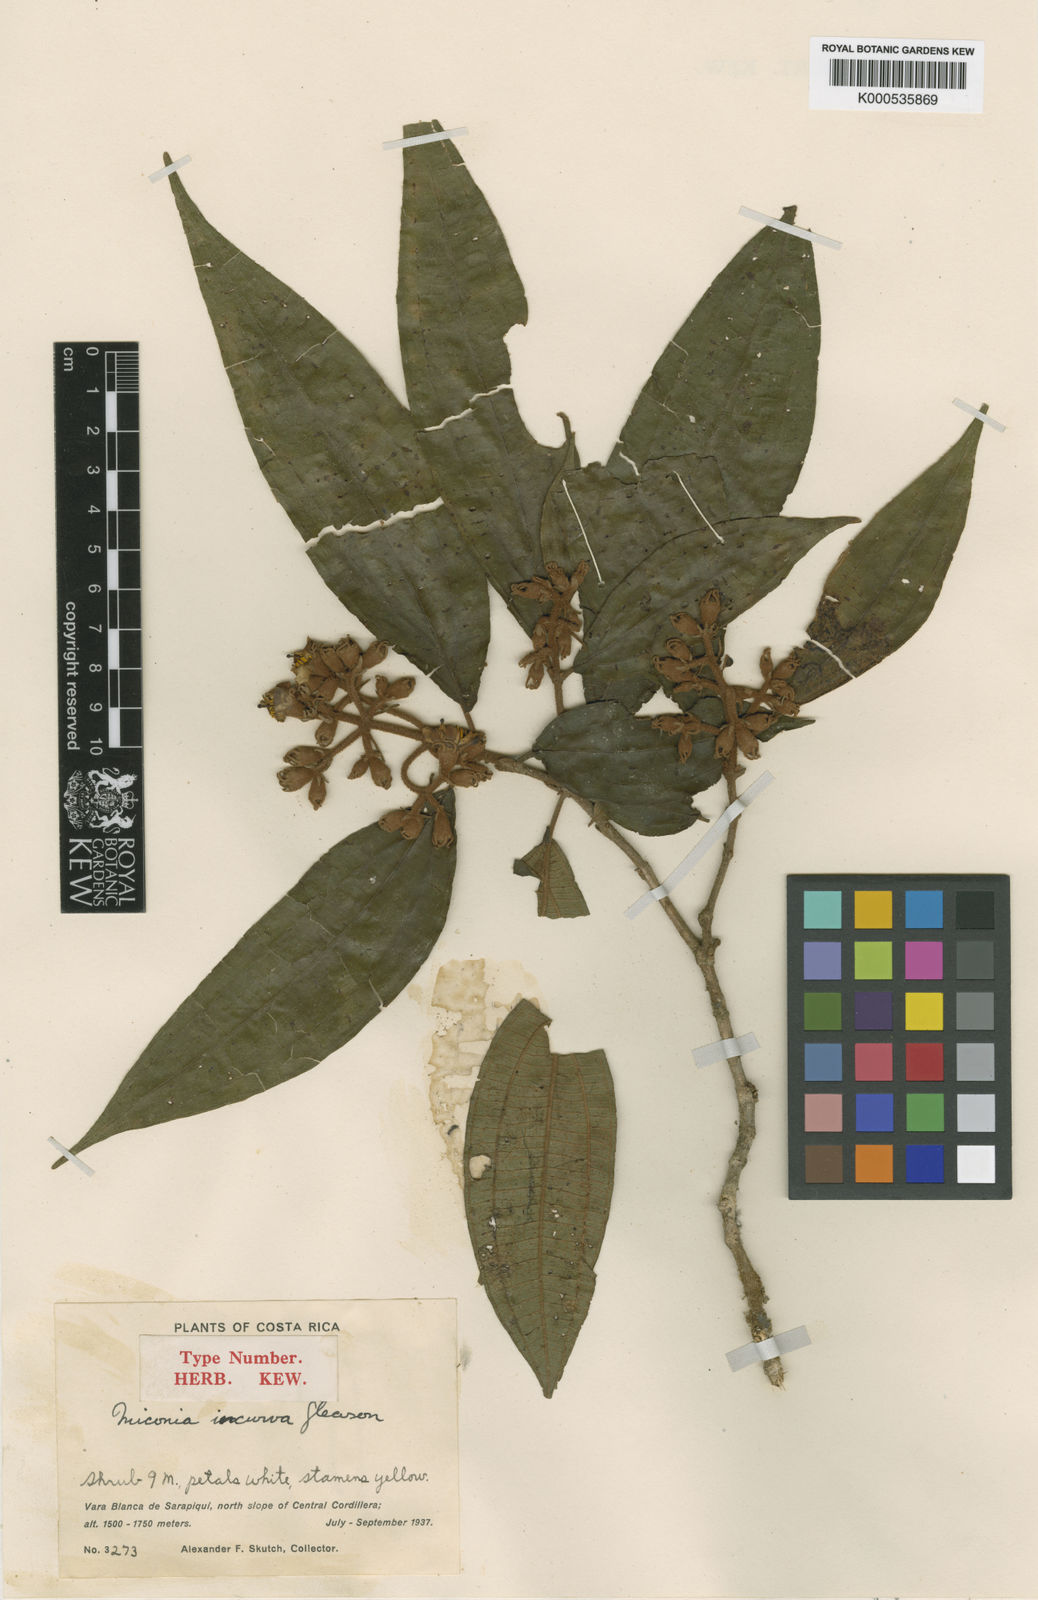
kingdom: Plantae
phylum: Tracheophyta
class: Magnoliopsida
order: Myrtales
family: Melastomataceae
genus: Miconia
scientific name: Miconia incurva
